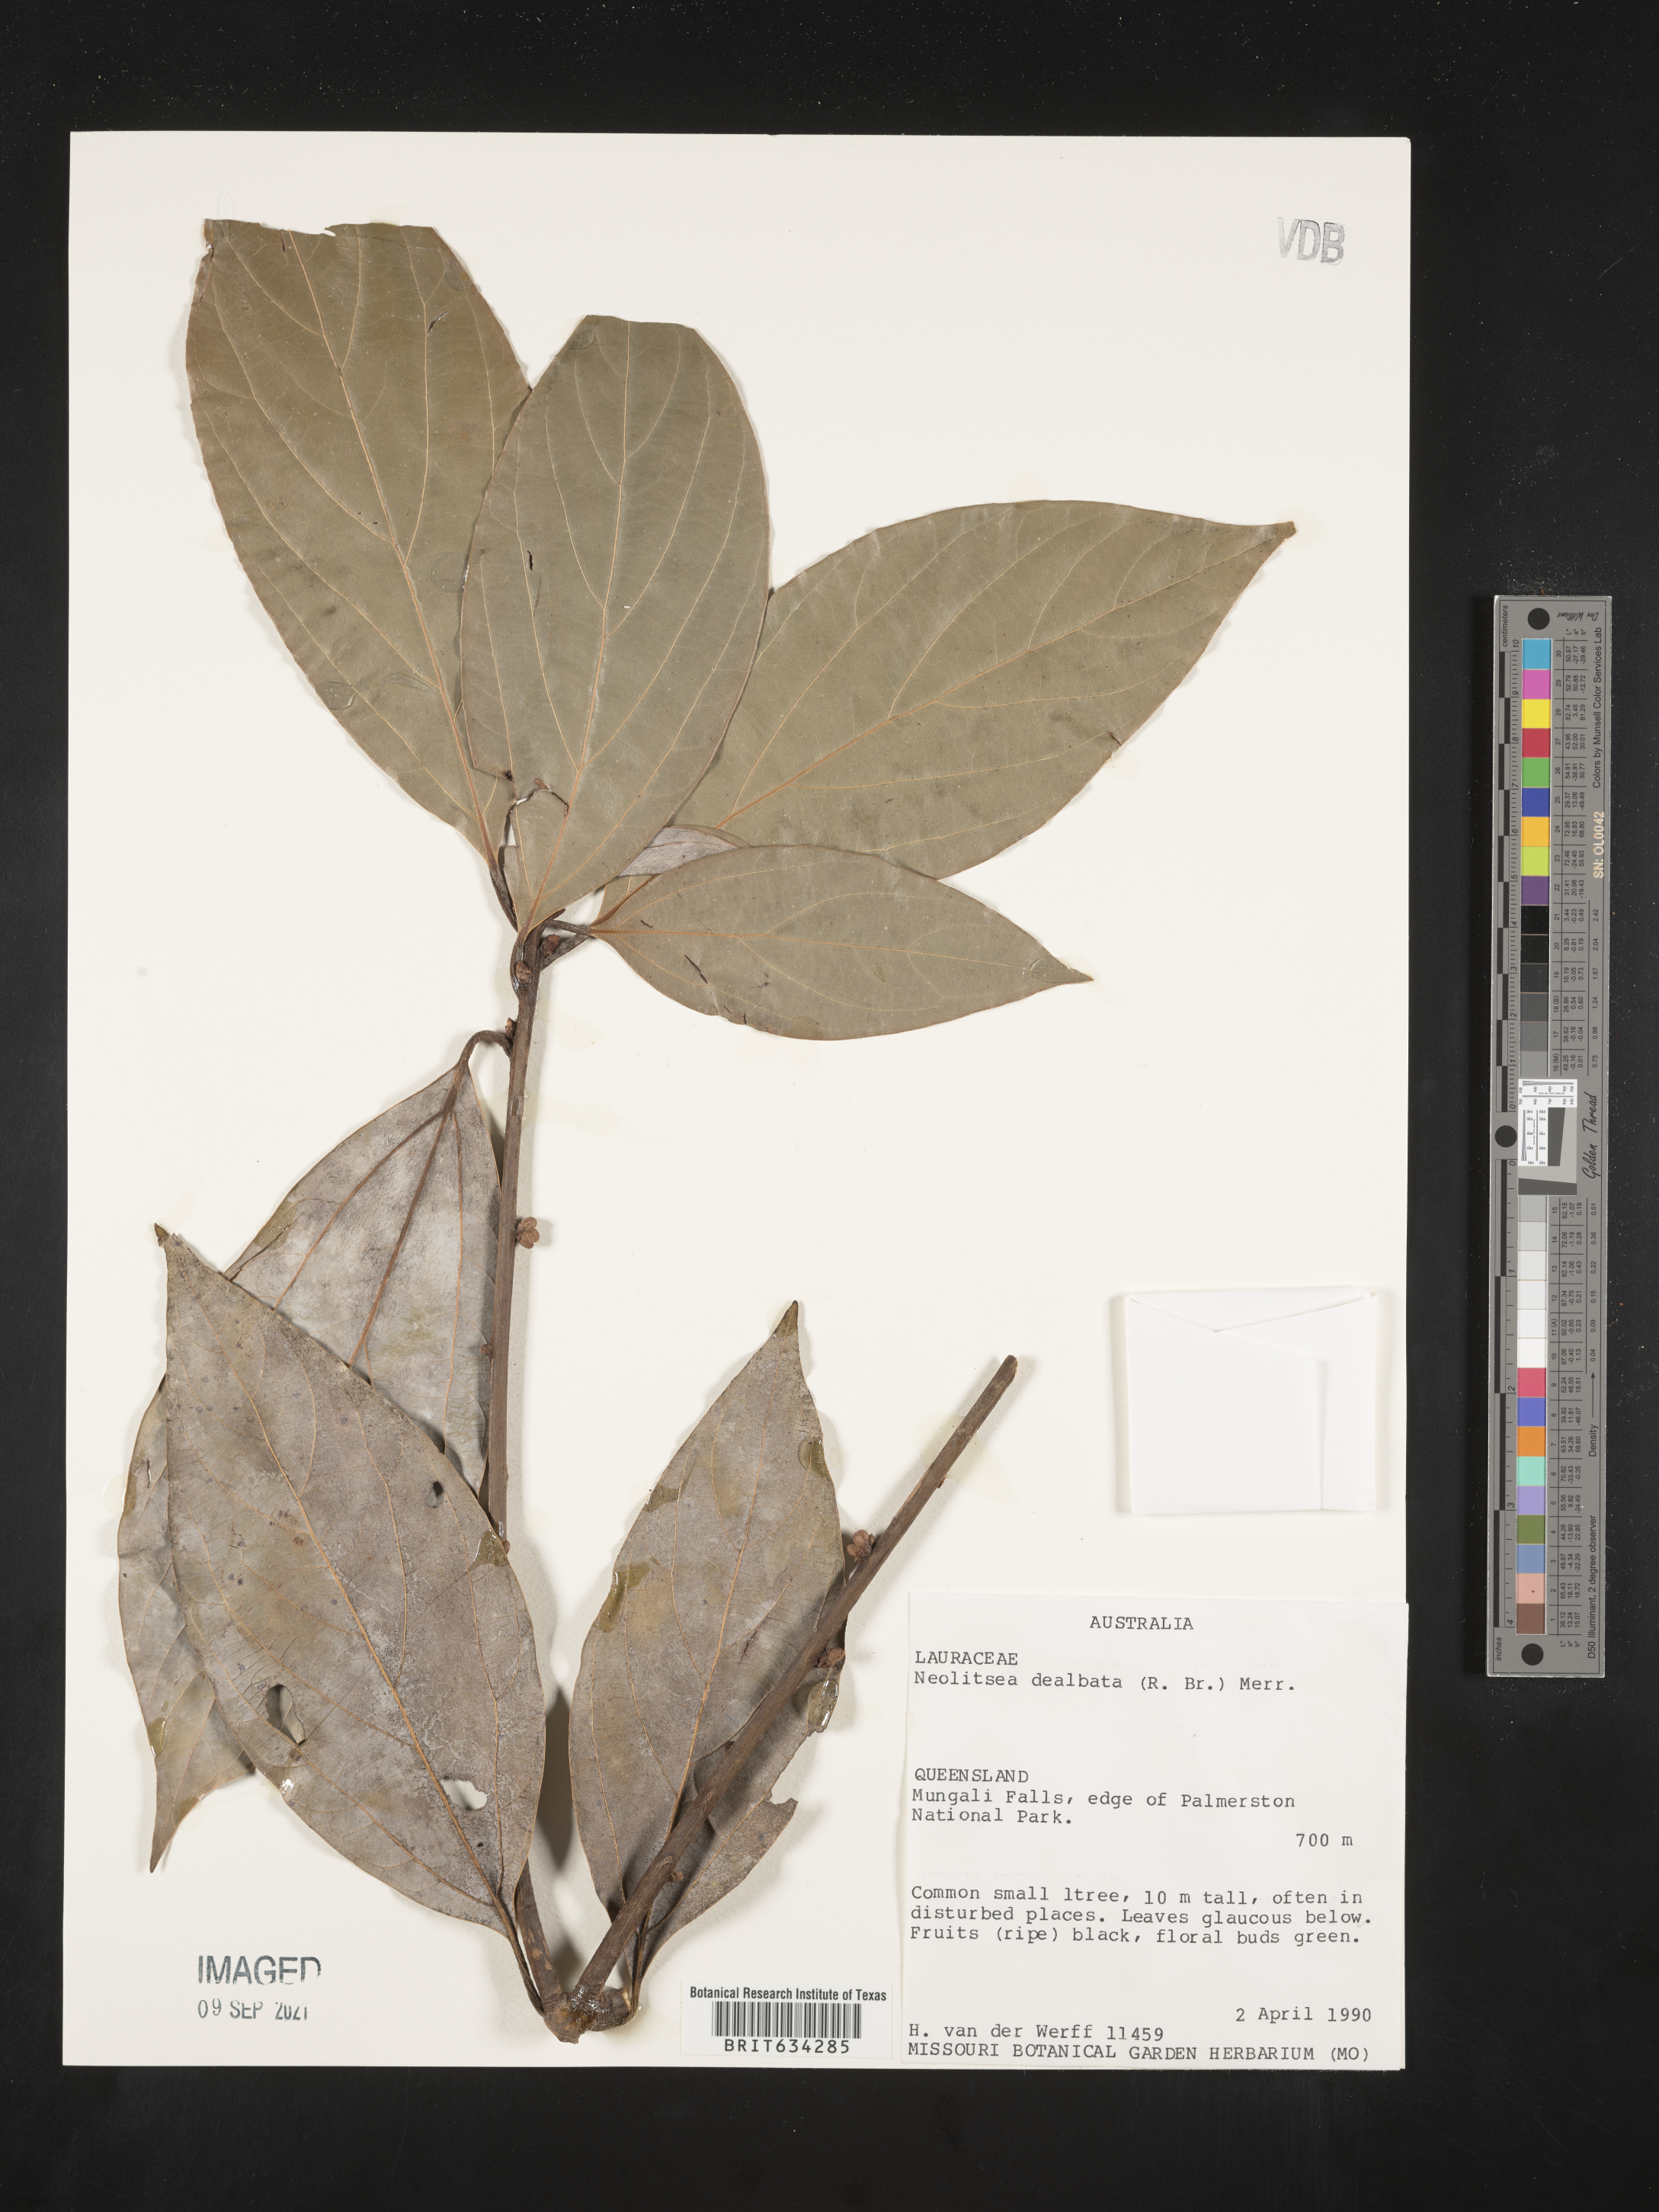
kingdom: Plantae
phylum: Tracheophyta
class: Magnoliopsida
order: Laurales
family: Lauraceae
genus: Neolitsea
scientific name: Neolitsea
